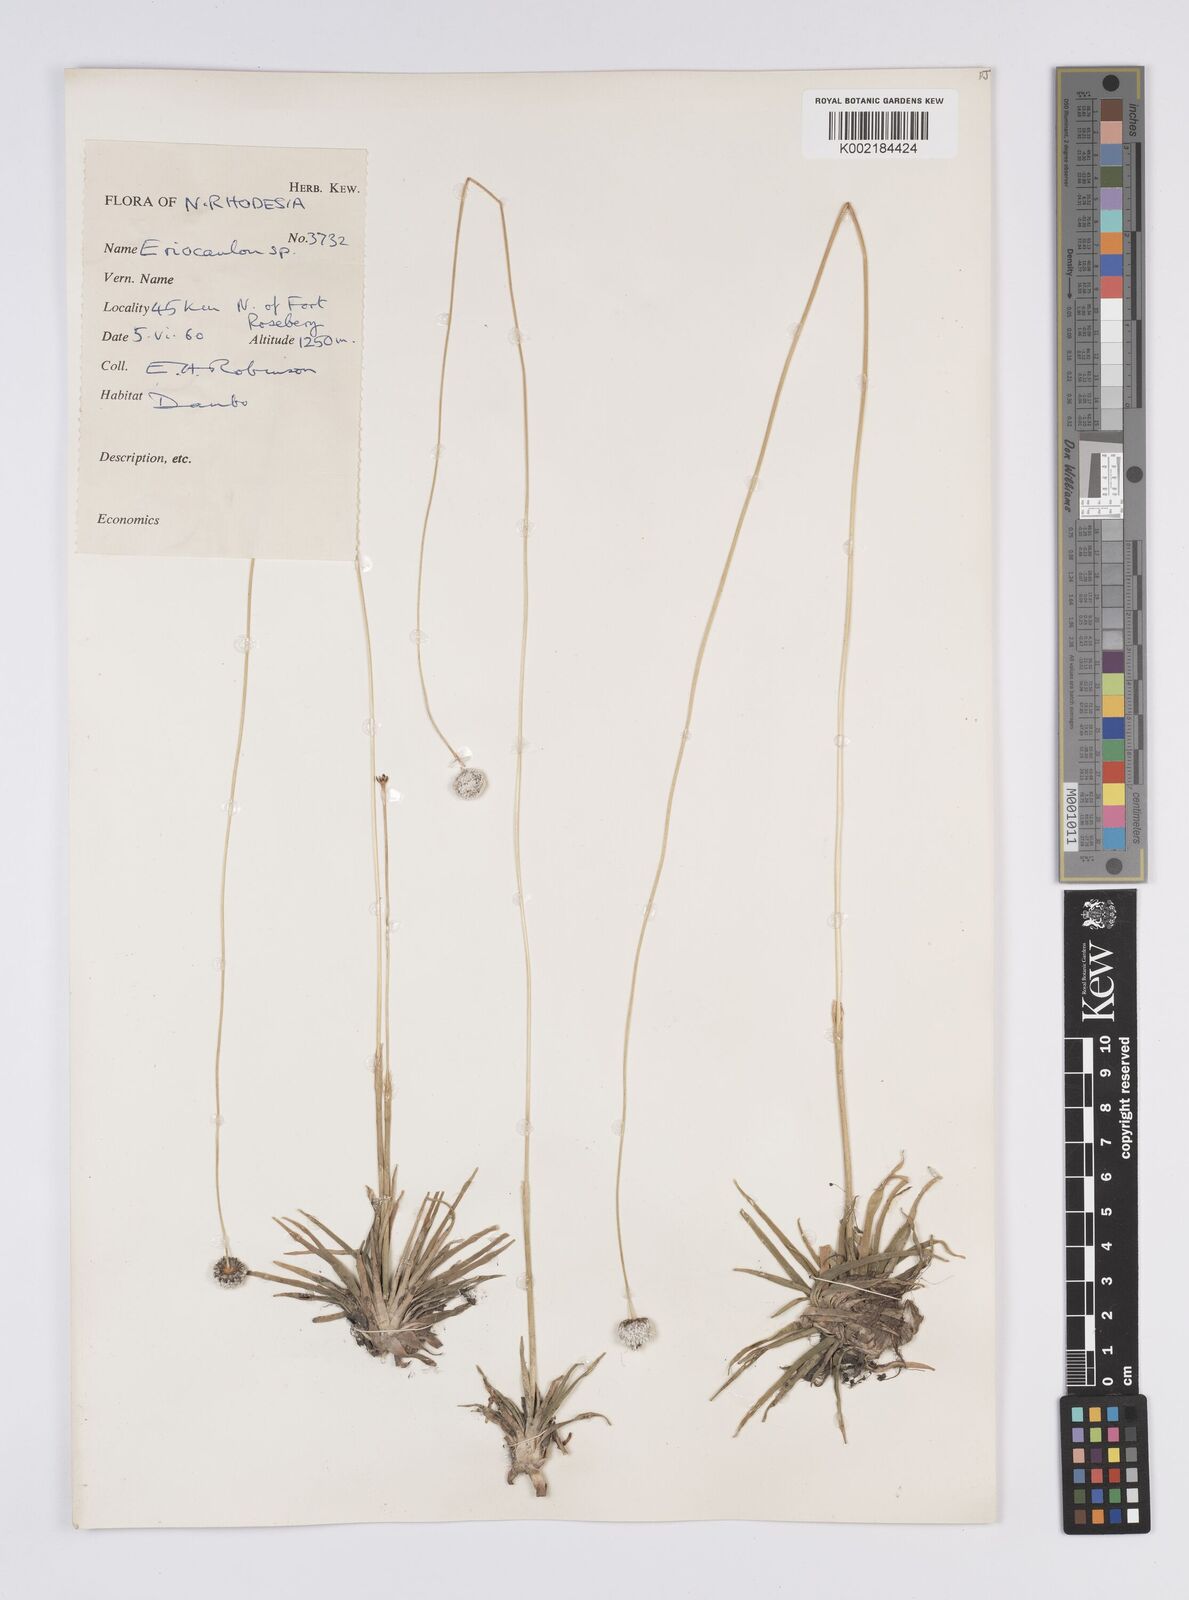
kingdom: Plantae
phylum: Tracheophyta
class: Liliopsida
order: Poales
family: Eriocaulaceae
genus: Eriocaulon
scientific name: Eriocaulon
